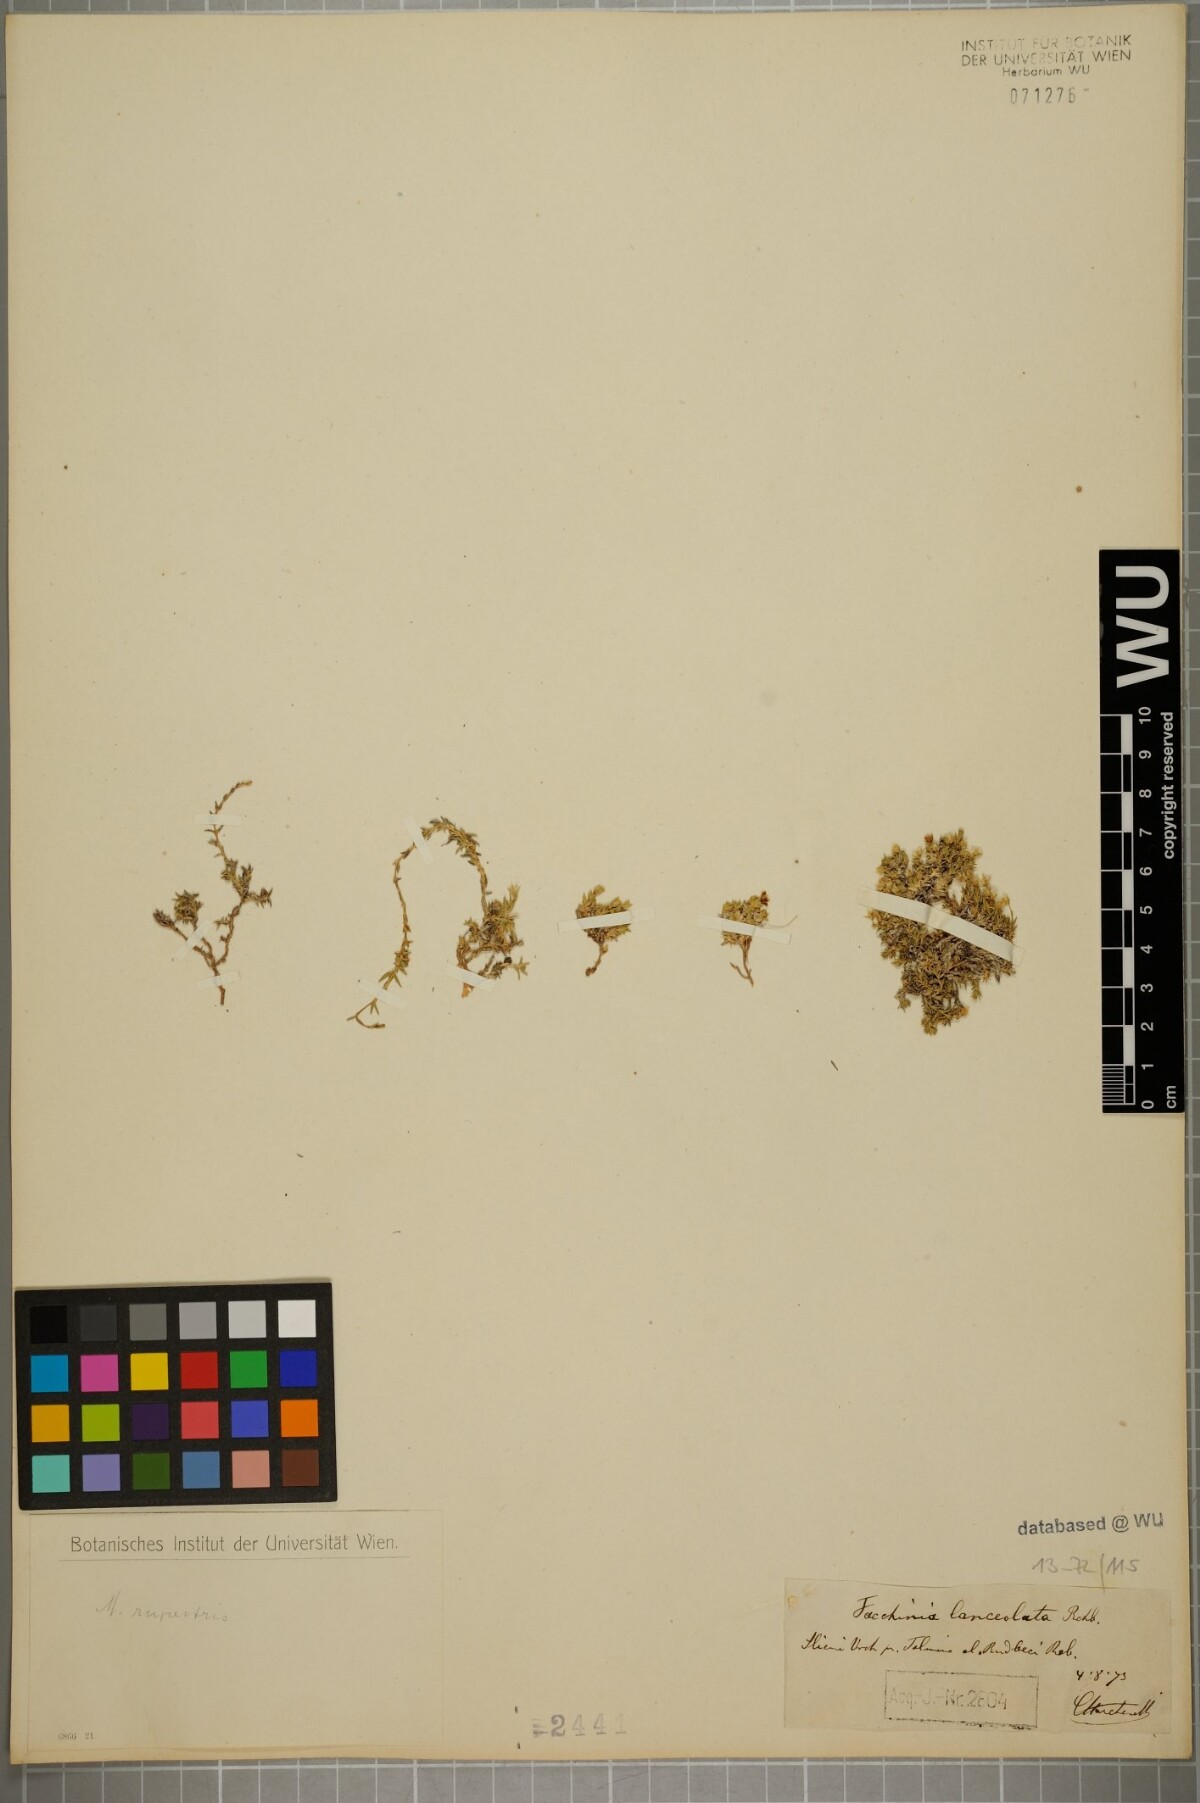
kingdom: Plantae
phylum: Tracheophyta
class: Magnoliopsida
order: Caryophyllales
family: Caryophyllaceae
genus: Facchinia
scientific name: Facchinia rupestris
